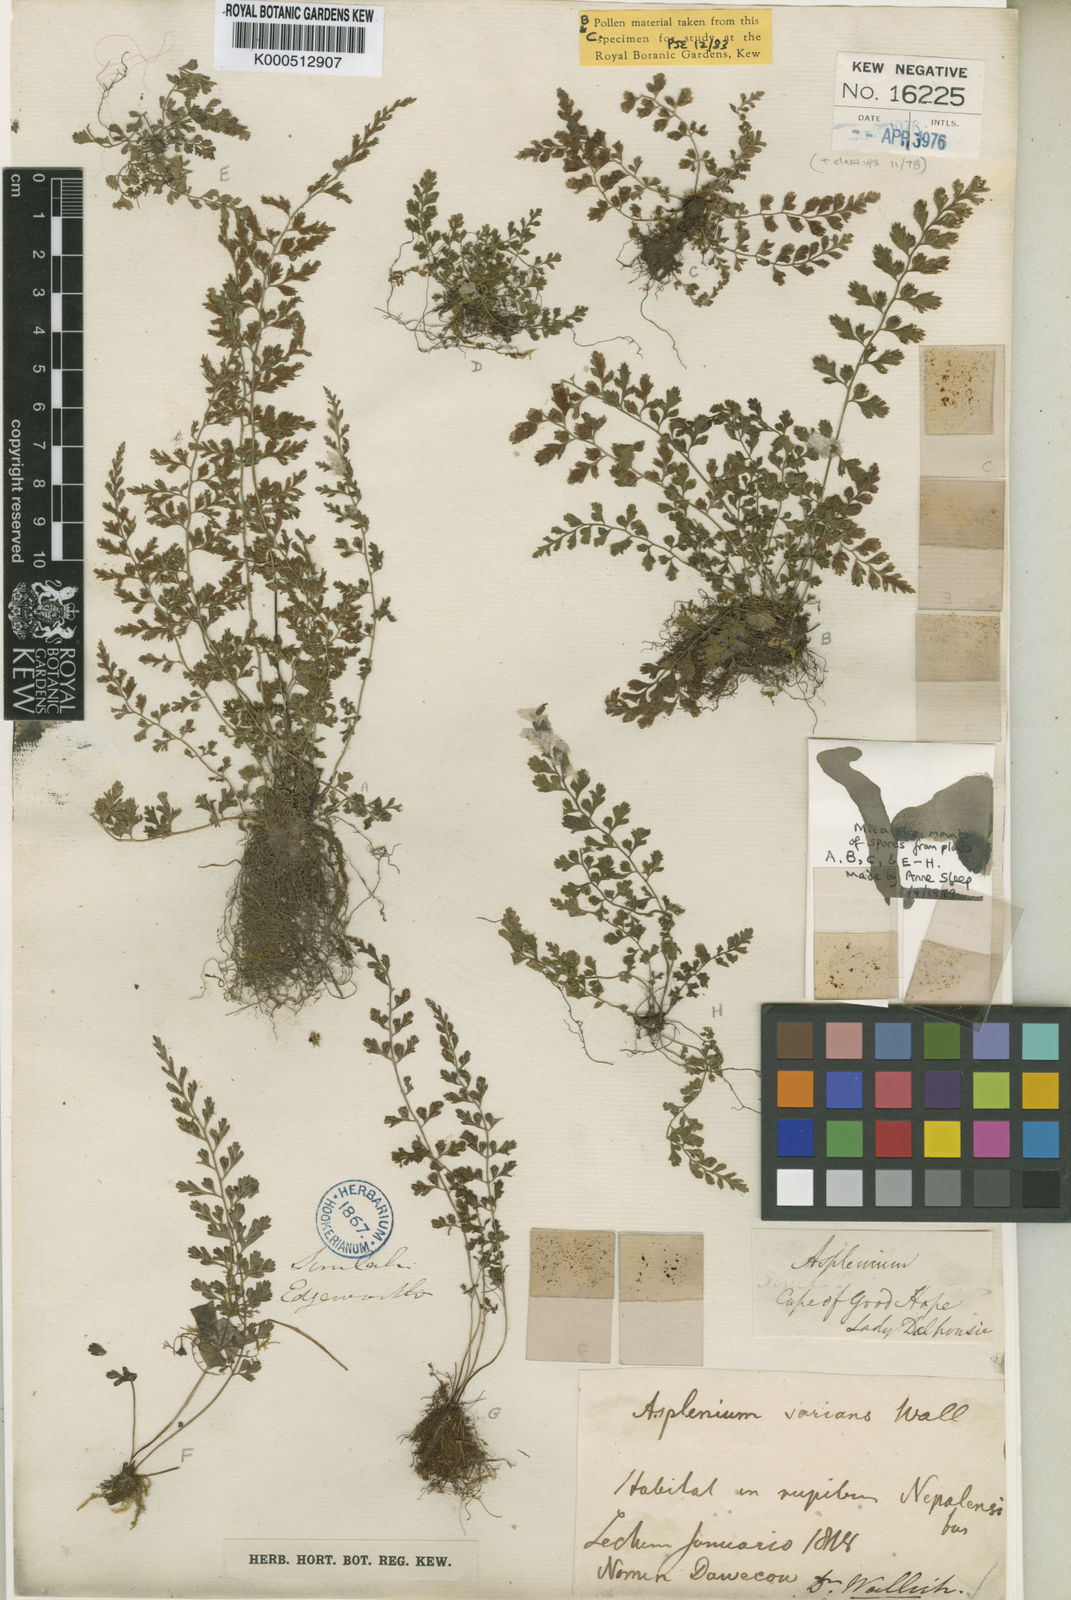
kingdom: Plantae
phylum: Tracheophyta
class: Polypodiopsida
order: Polypodiales
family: Aspleniaceae
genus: Asplenium
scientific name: Asplenium
